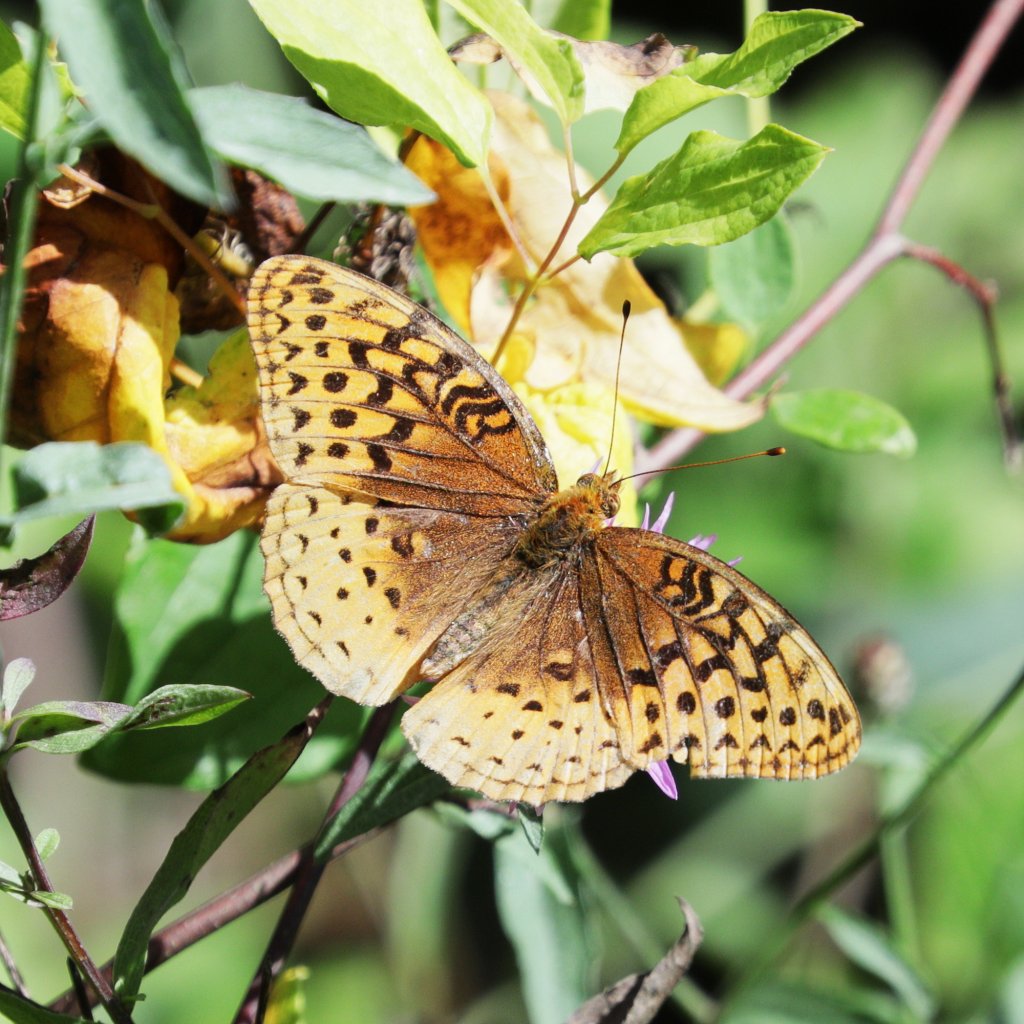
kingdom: Animalia
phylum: Arthropoda
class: Insecta
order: Lepidoptera
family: Nymphalidae
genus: Speyeria
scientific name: Speyeria cybele
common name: Great Spangled Fritillary
